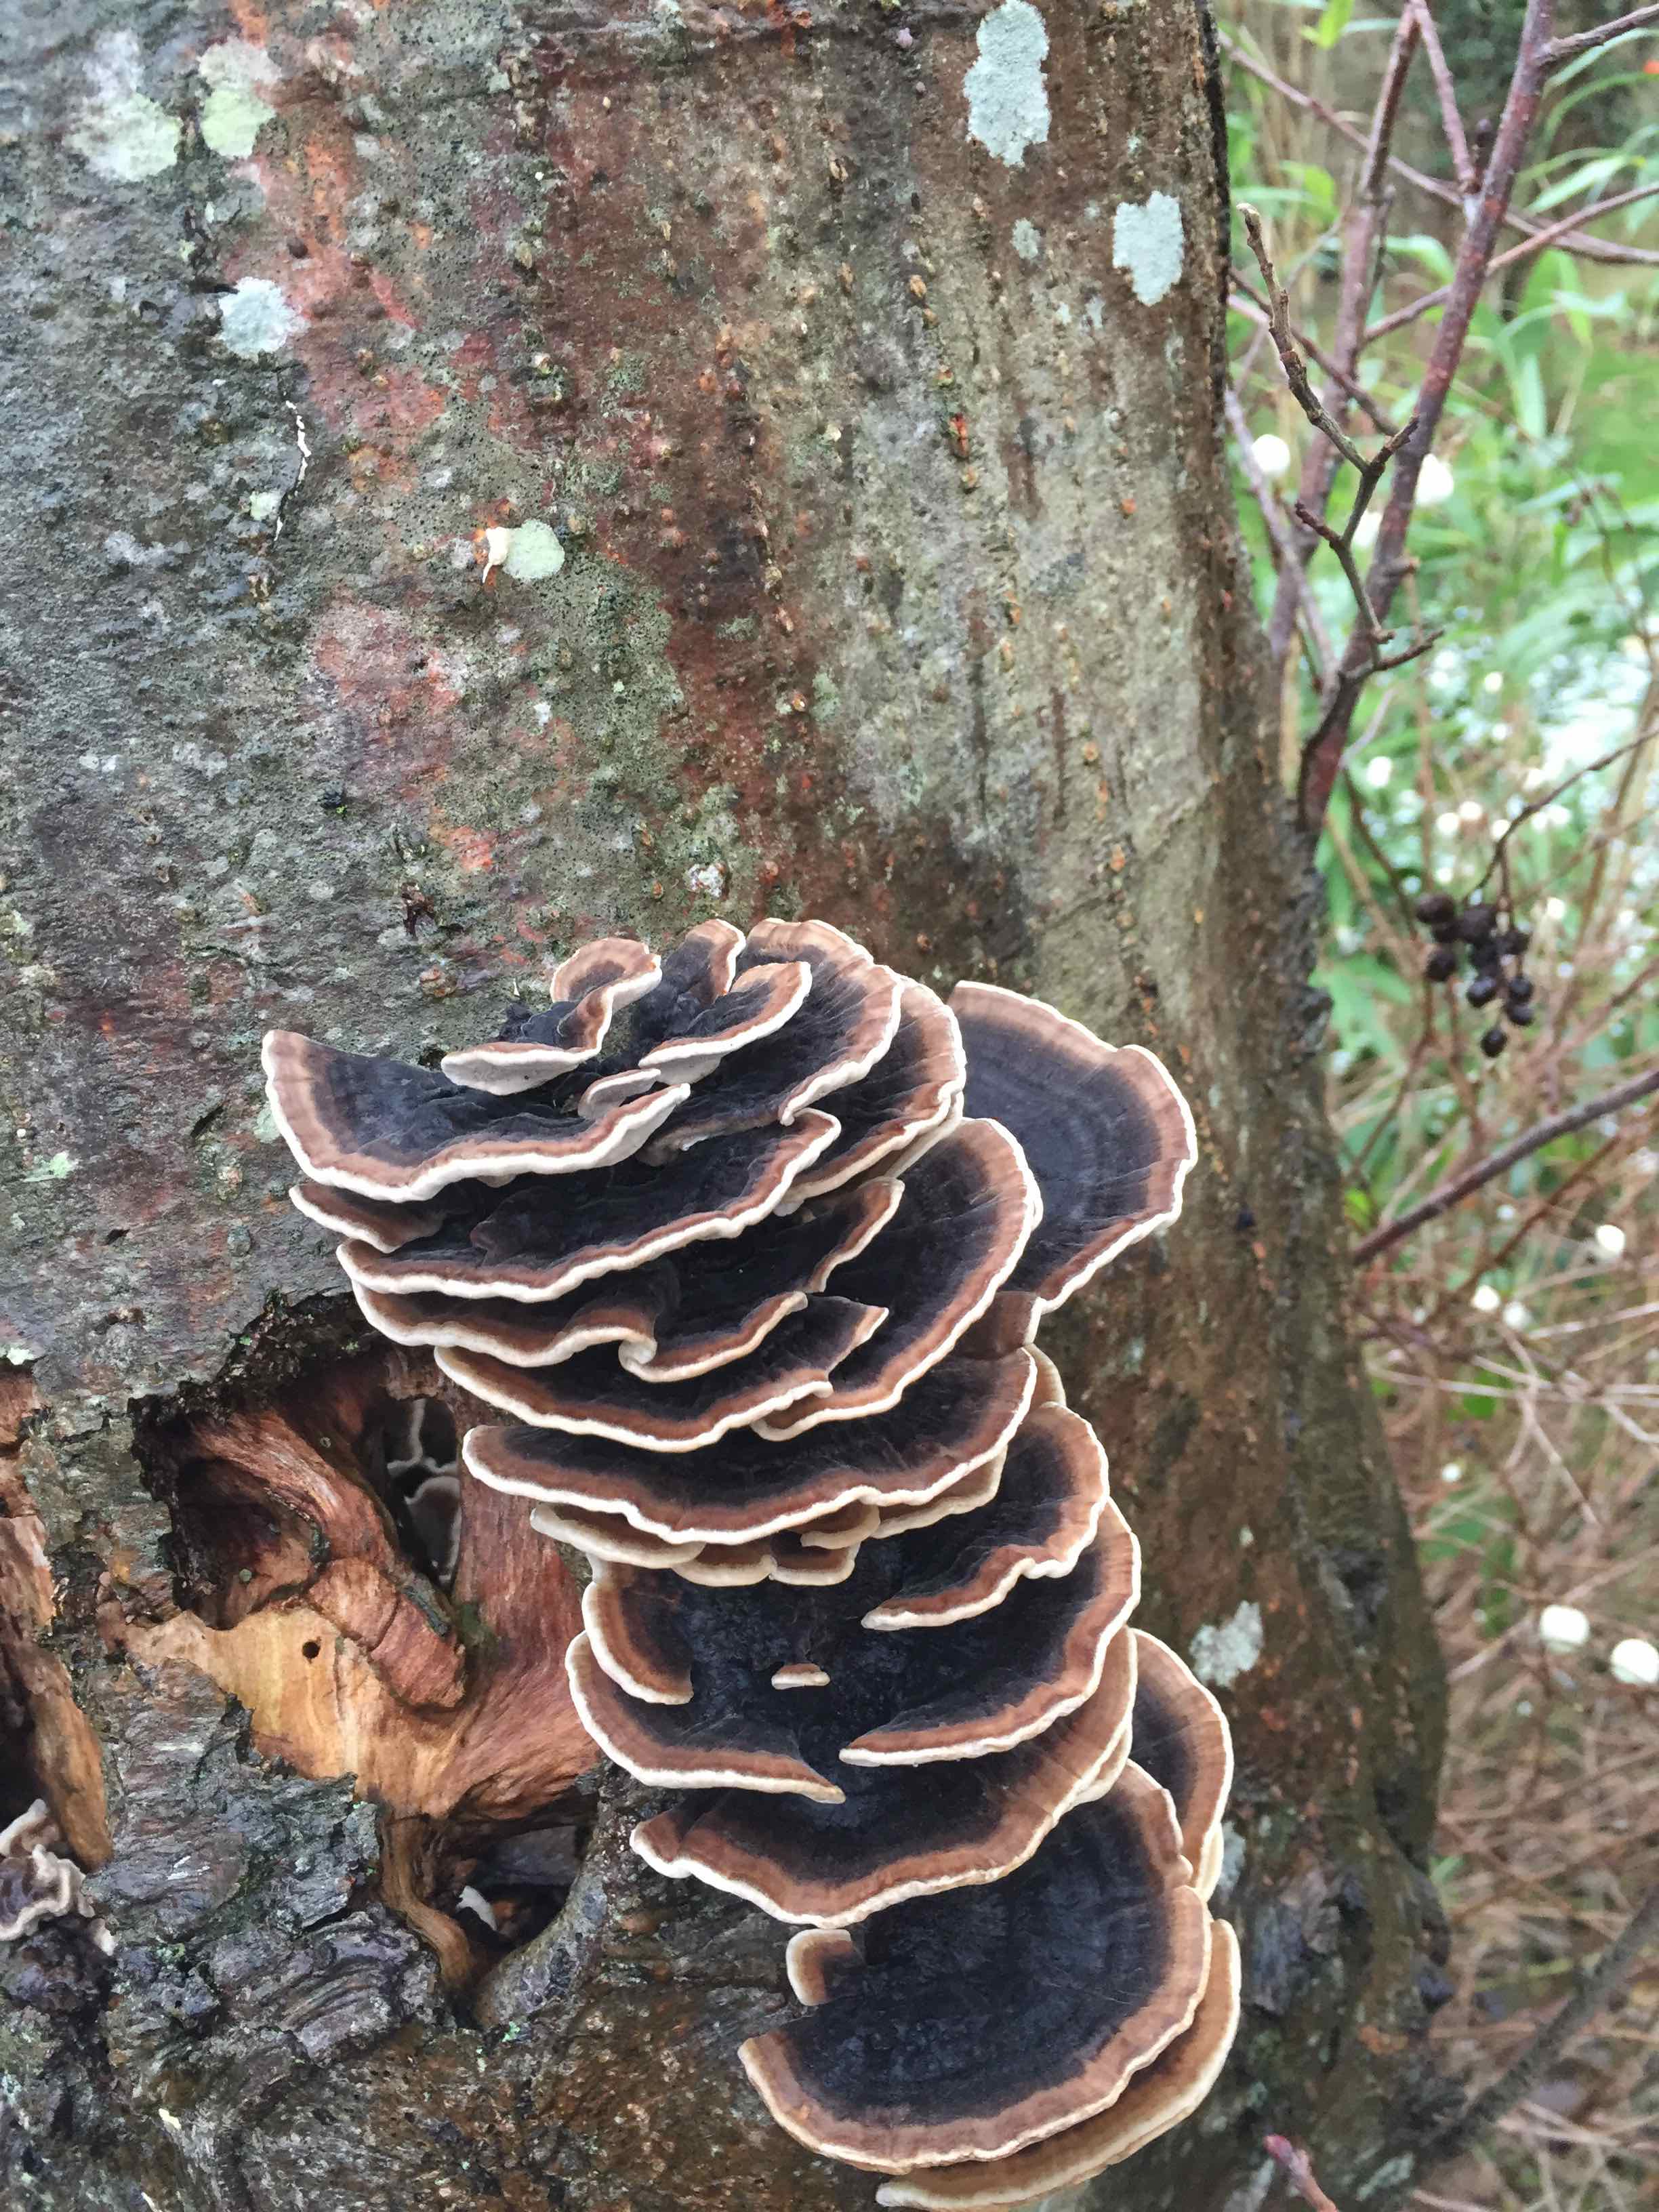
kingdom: Fungi
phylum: Basidiomycota
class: Agaricomycetes
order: Polyporales
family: Polyporaceae
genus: Trametes
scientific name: Trametes versicolor
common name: broget læderporesvamp
